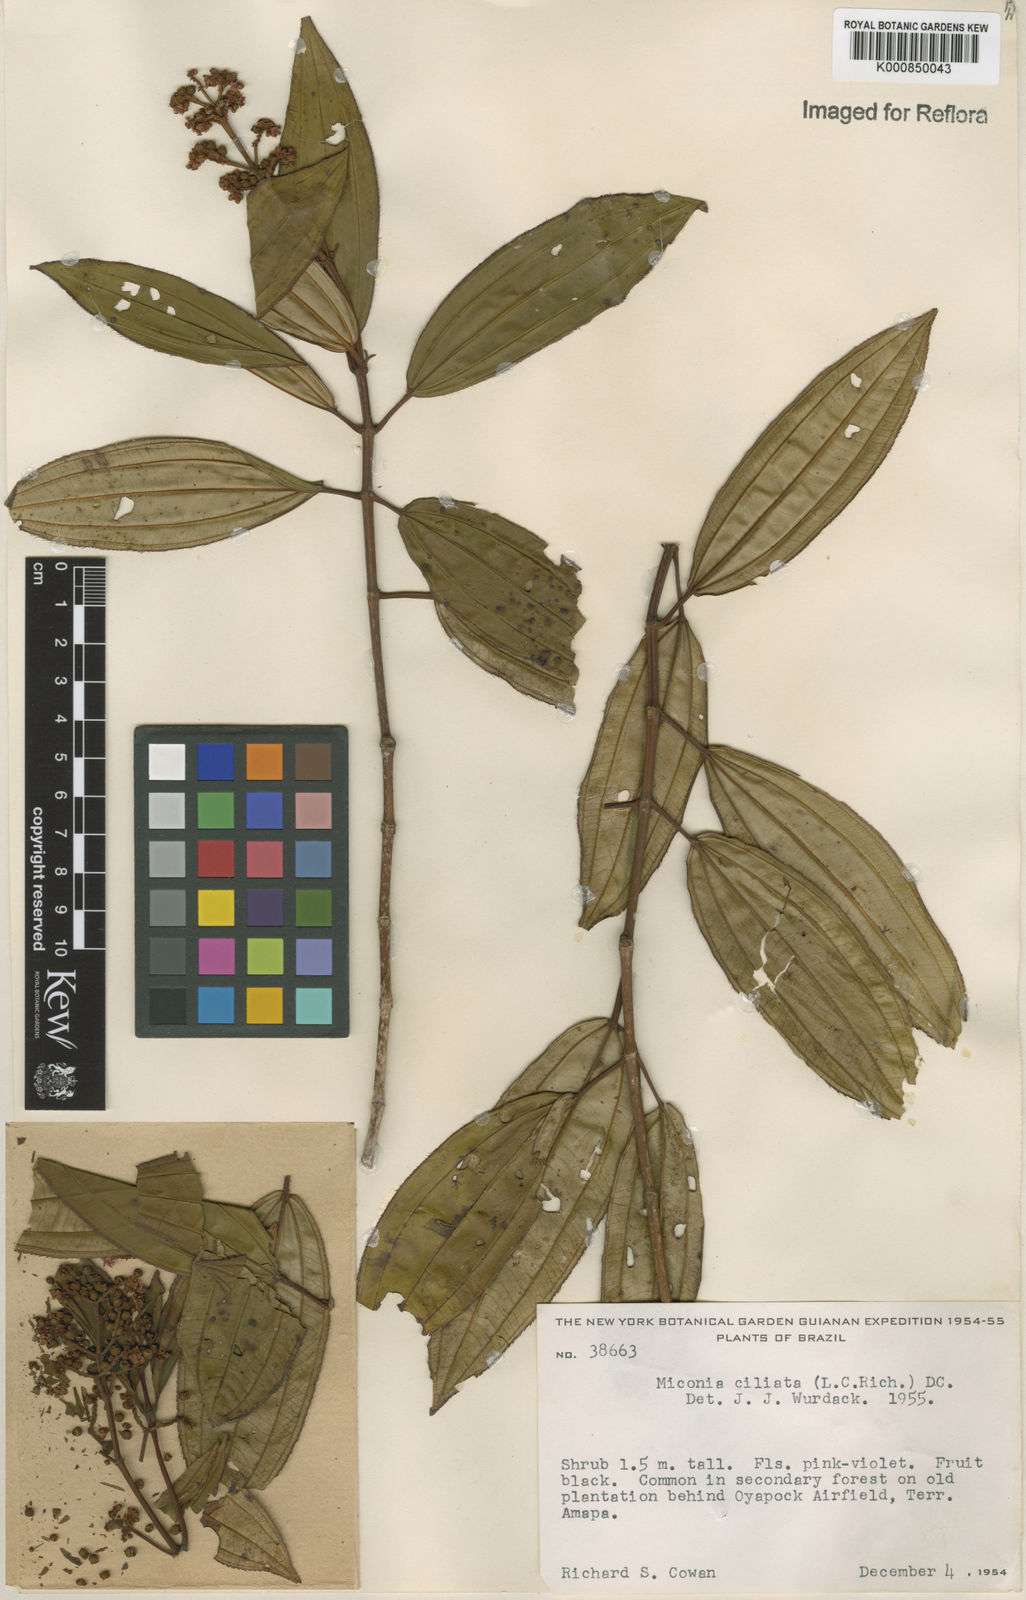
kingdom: Plantae
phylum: Tracheophyta
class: Magnoliopsida
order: Myrtales
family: Melastomataceae
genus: Miconia
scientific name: Miconia ciliata
